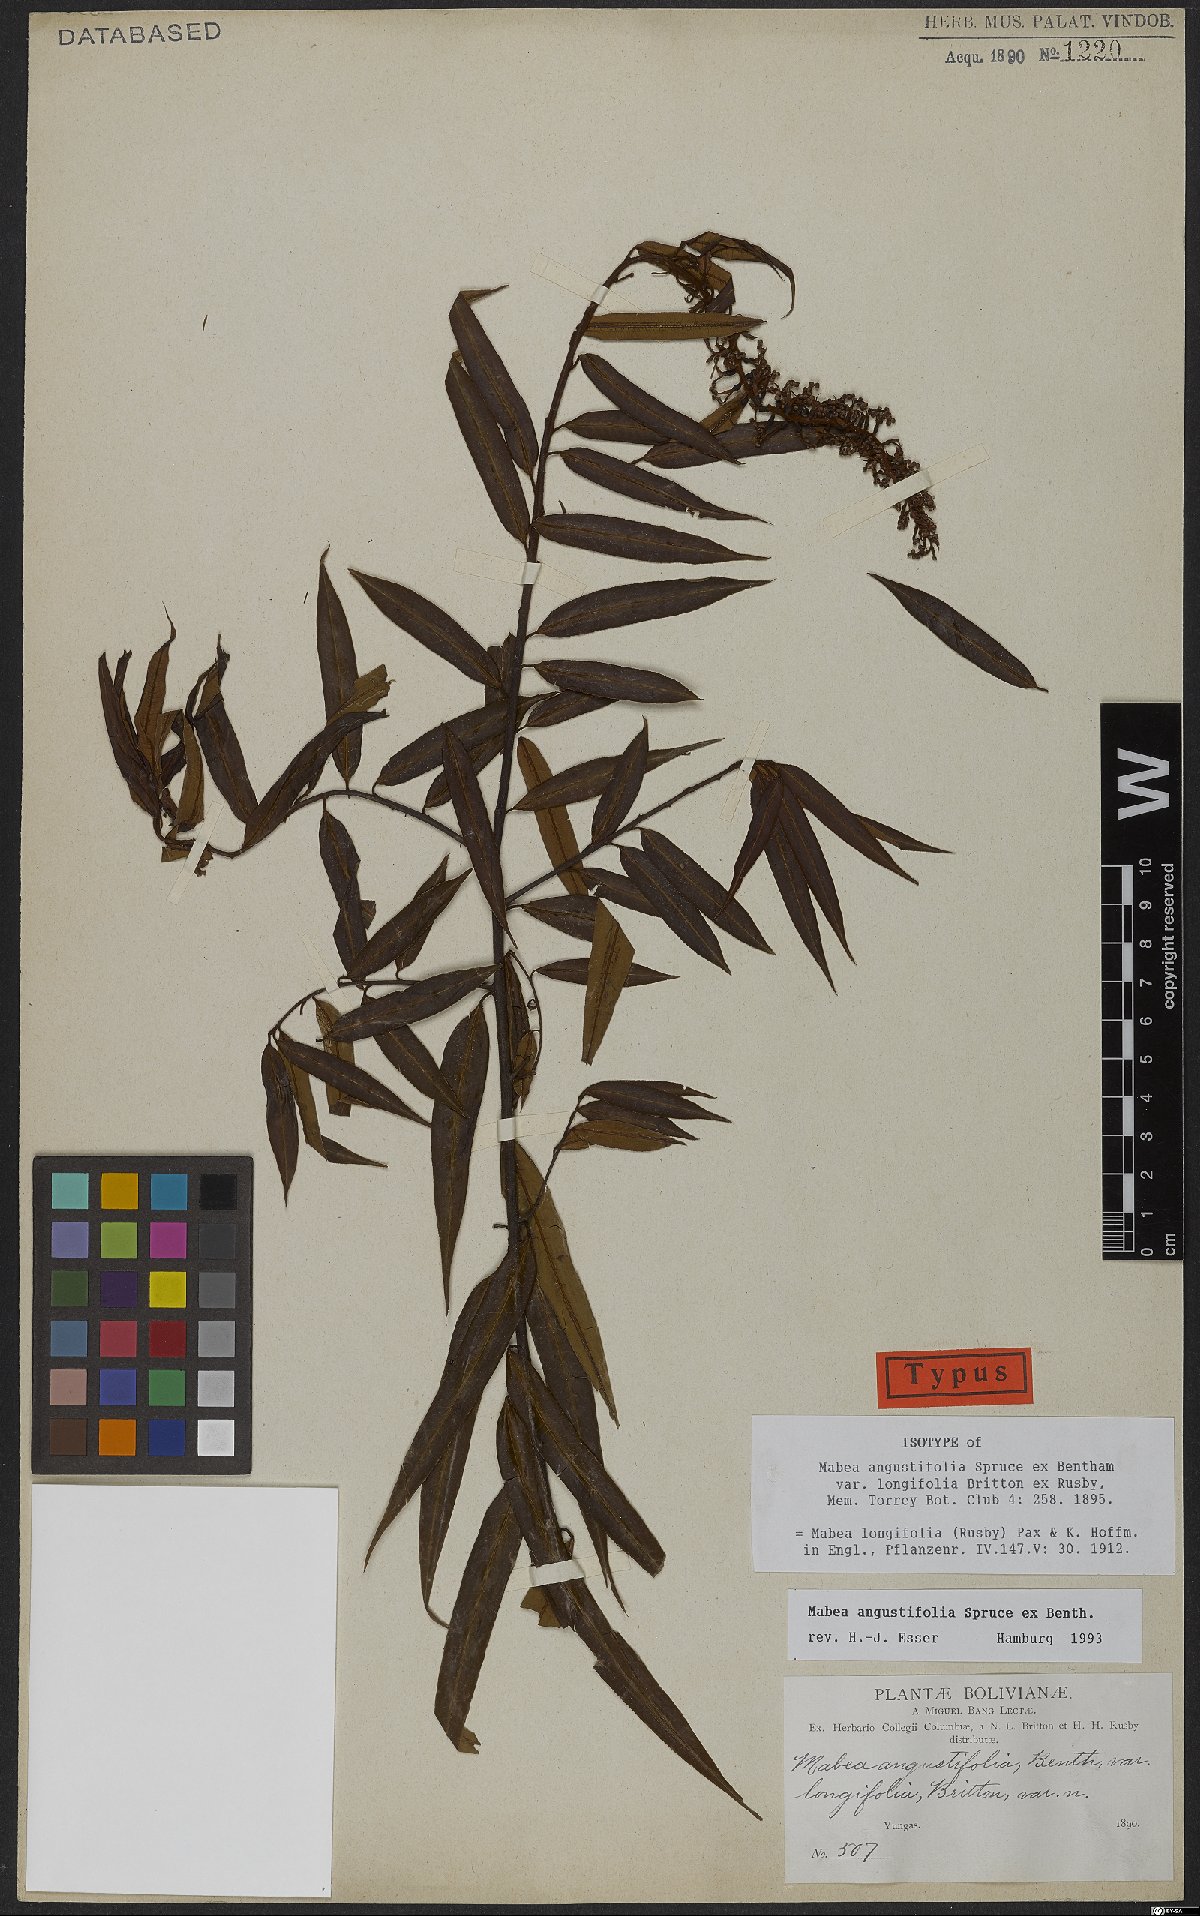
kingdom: Plantae
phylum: Tracheophyta
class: Magnoliopsida
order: Malpighiales
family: Euphorbiaceae
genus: Mabea
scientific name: Mabea angustifolia
